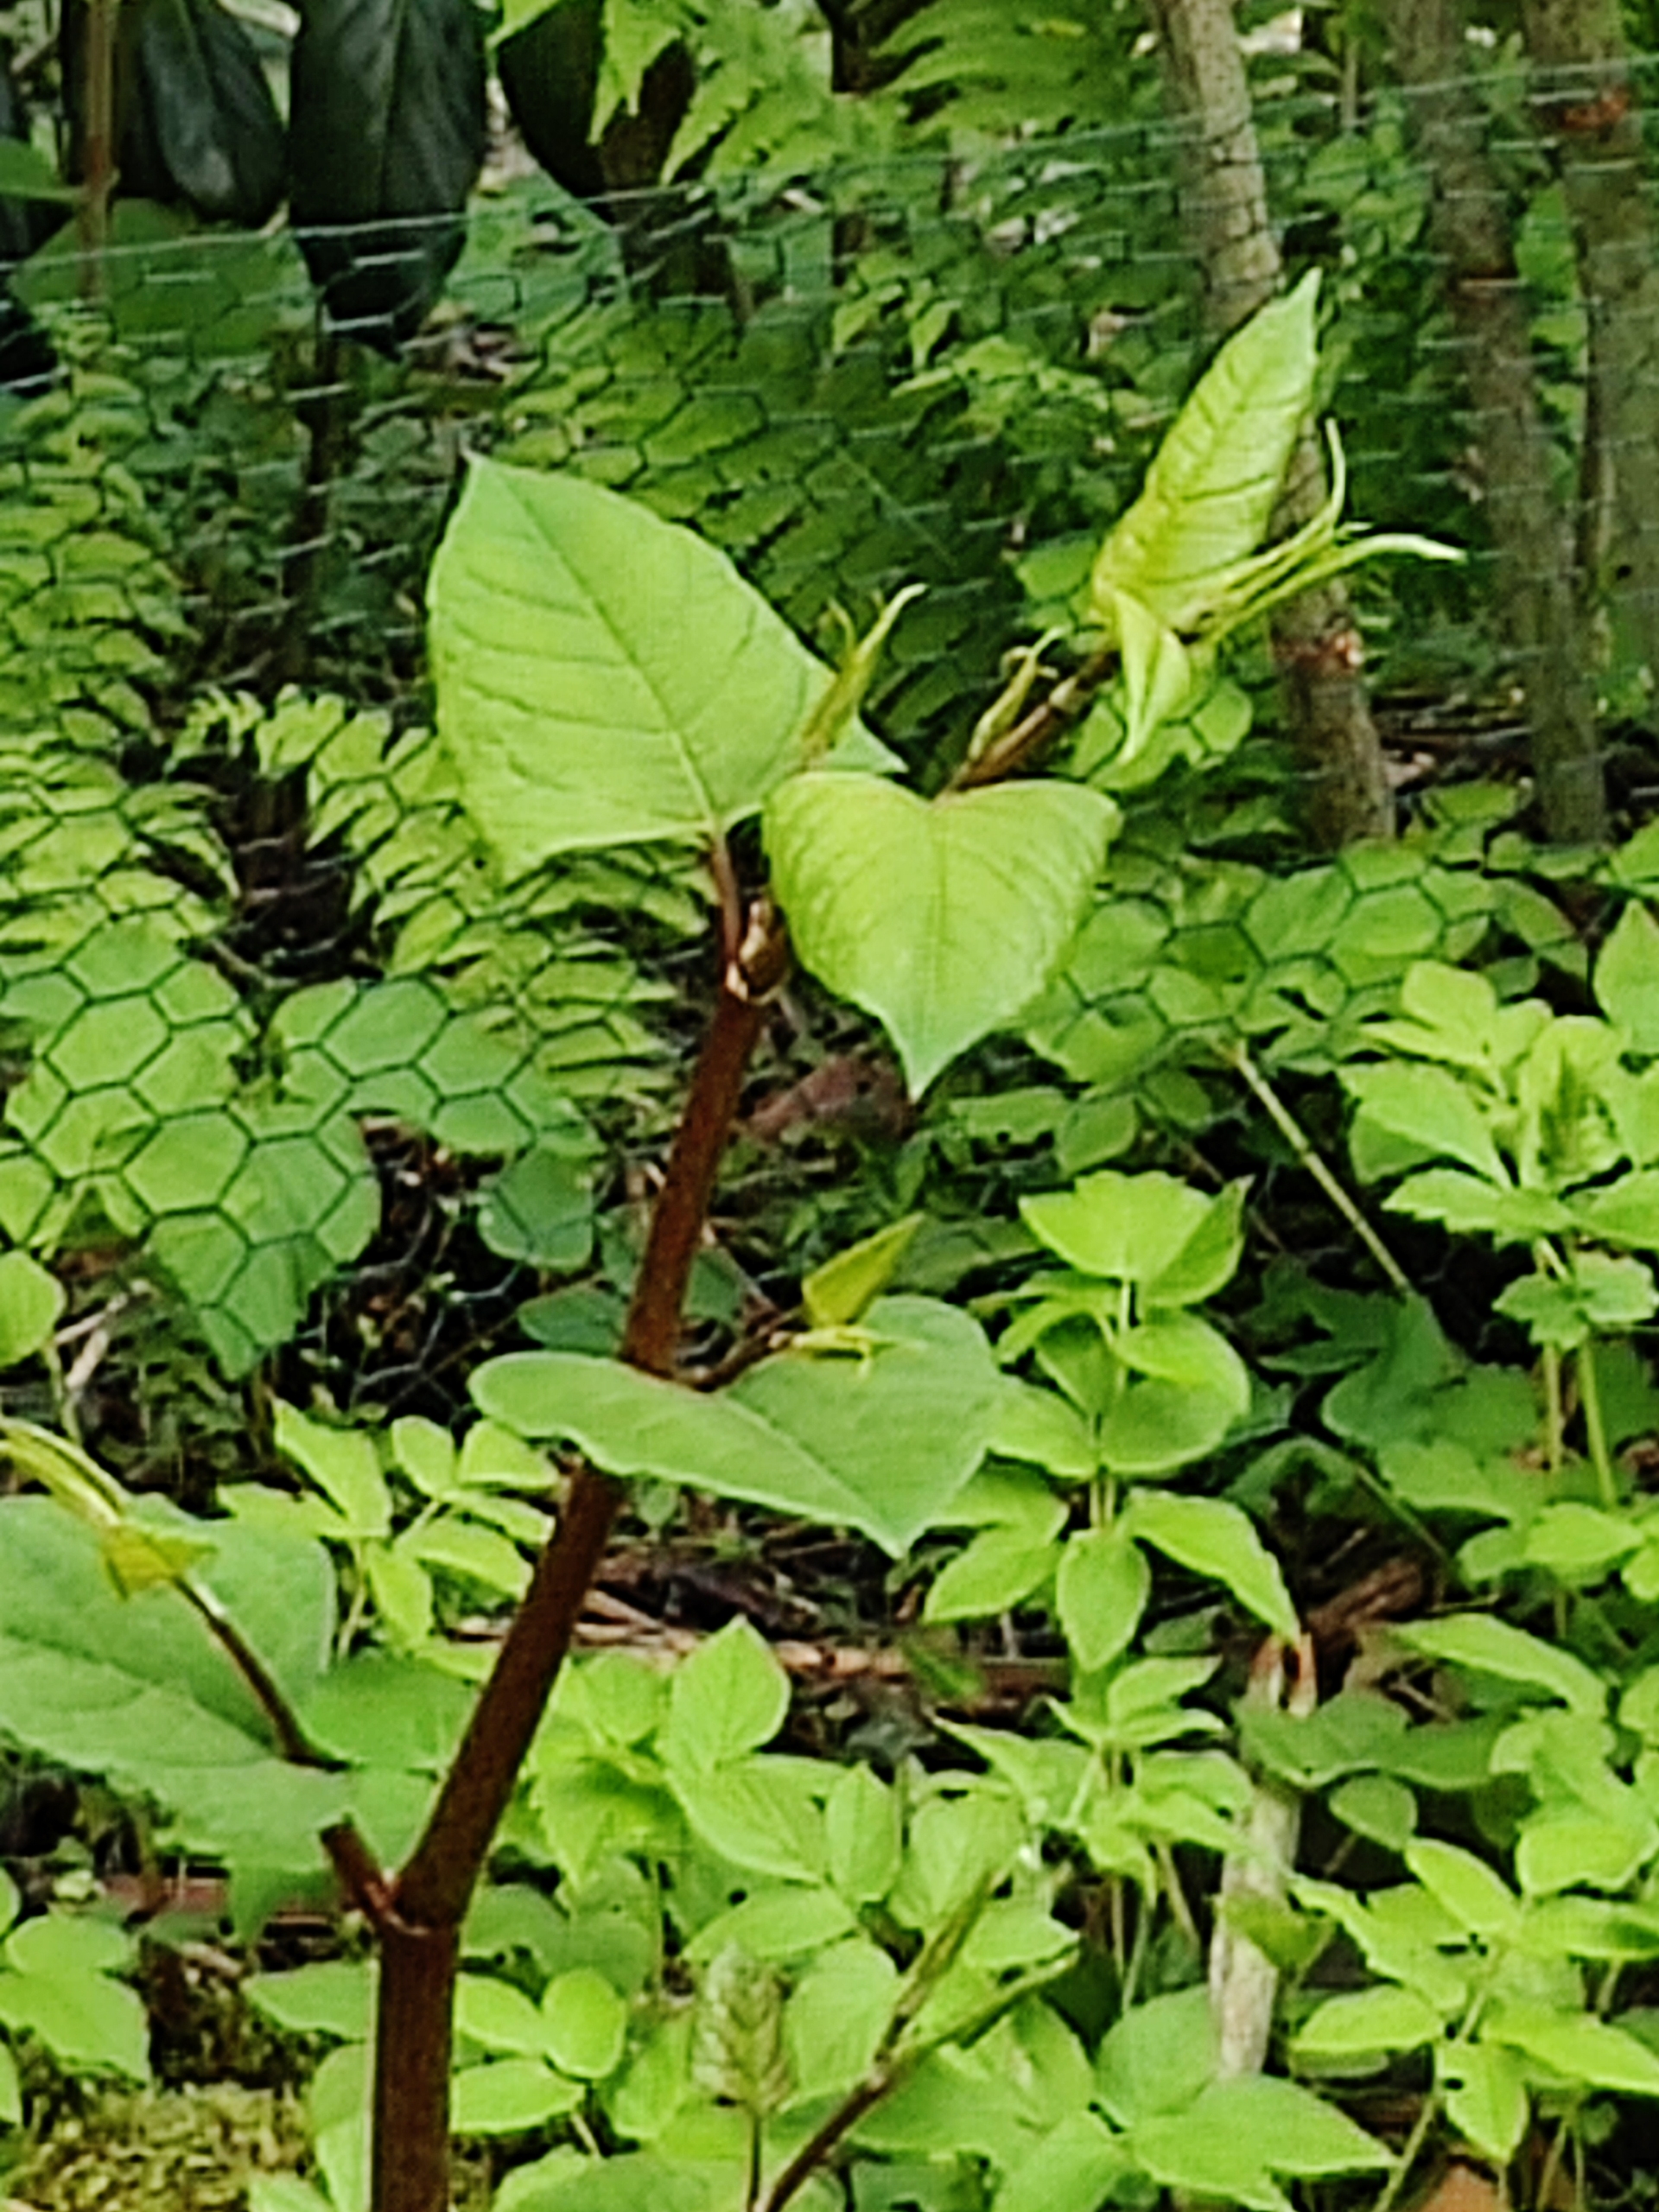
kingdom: Plantae
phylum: Tracheophyta
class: Magnoliopsida
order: Caryophyllales
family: Polygonaceae
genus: Reynoutria
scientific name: Reynoutria japonica
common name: Japan-pileurt
